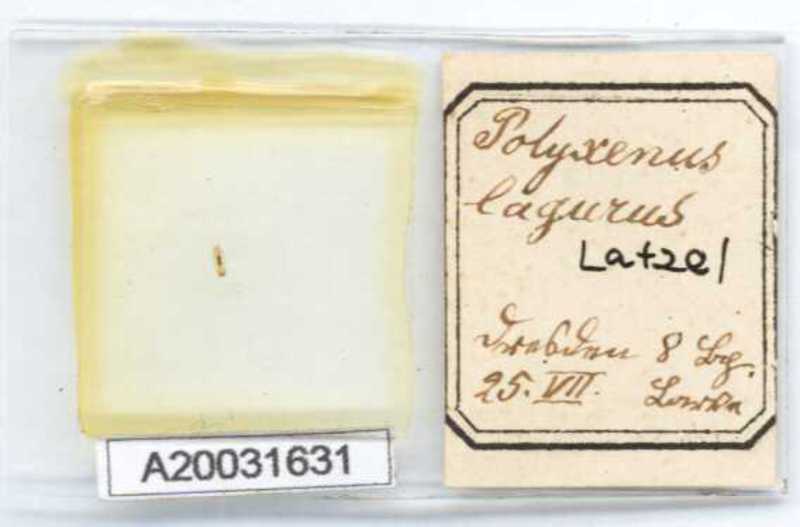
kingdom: Animalia
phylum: Arthropoda
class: Diplopoda
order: Polyxenida
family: Polyxenidae
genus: Polyxenus
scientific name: Polyxenus lagurus
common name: Bristly millipede
